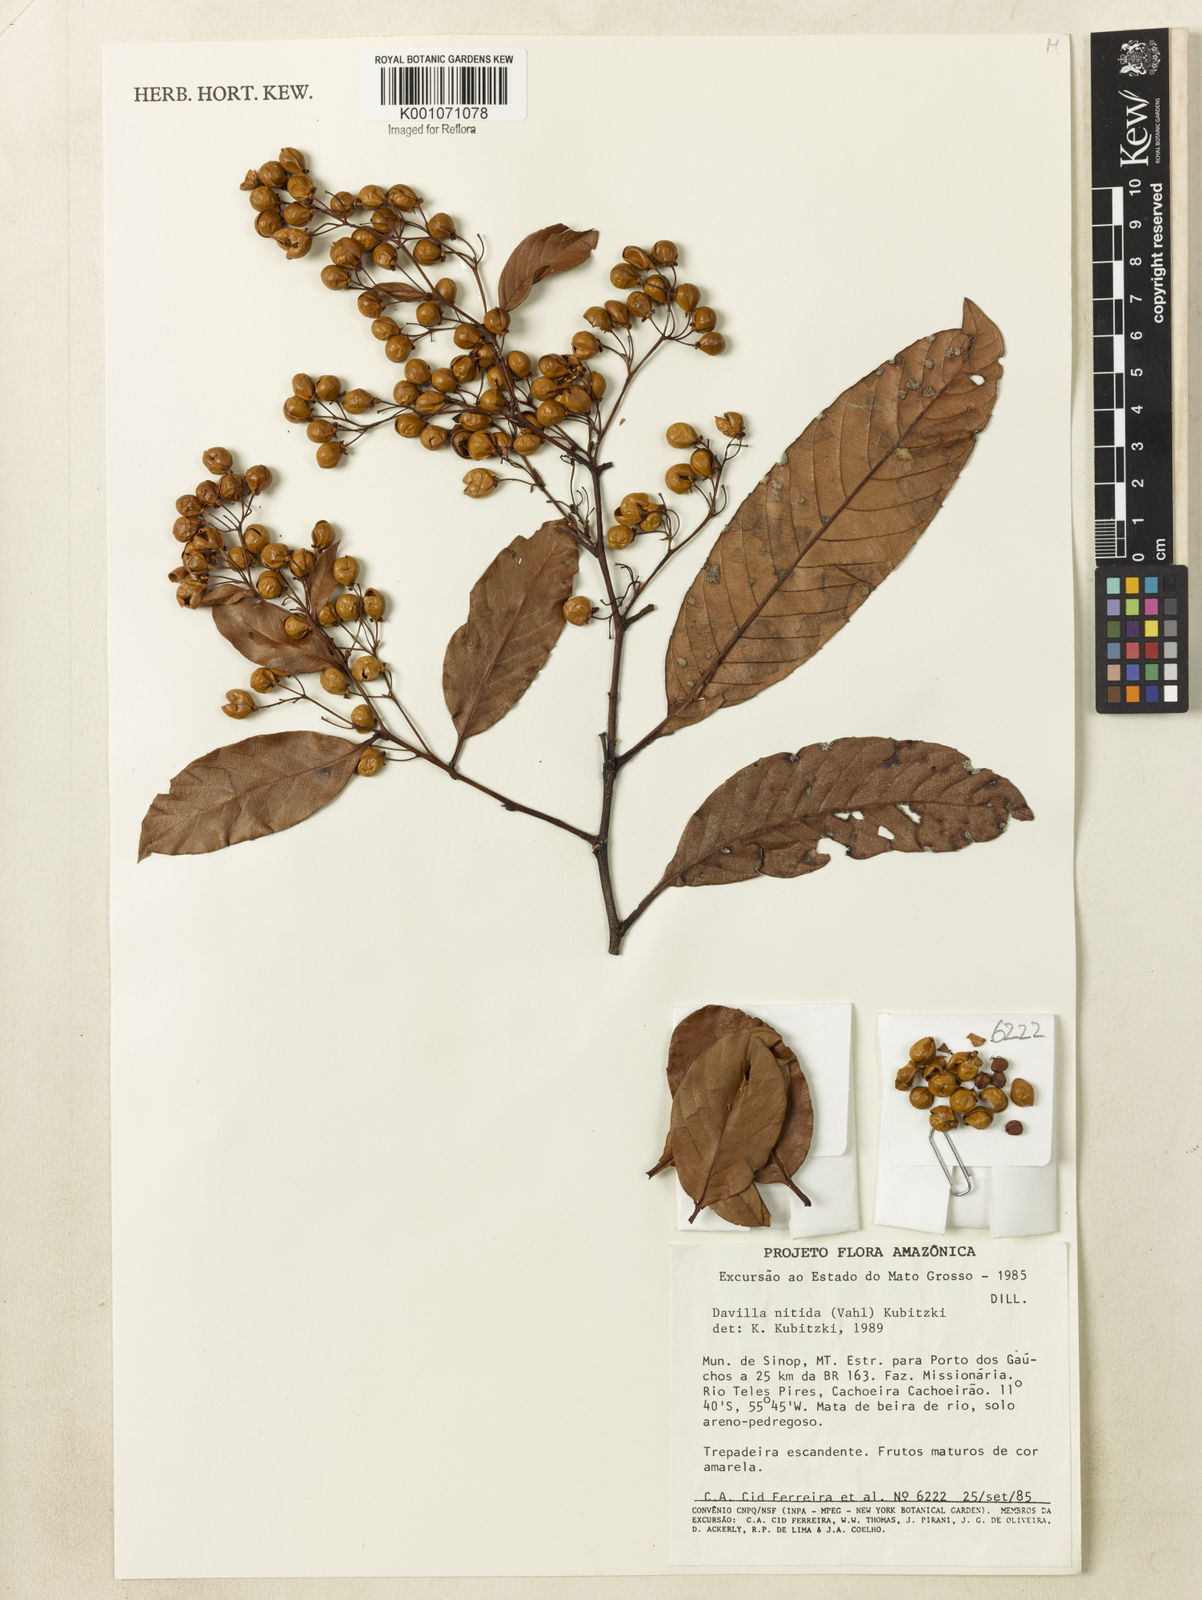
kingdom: Plantae
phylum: Tracheophyta
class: Magnoliopsida
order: Dilleniales
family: Dilleniaceae
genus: Davilla
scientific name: Davilla nitida
